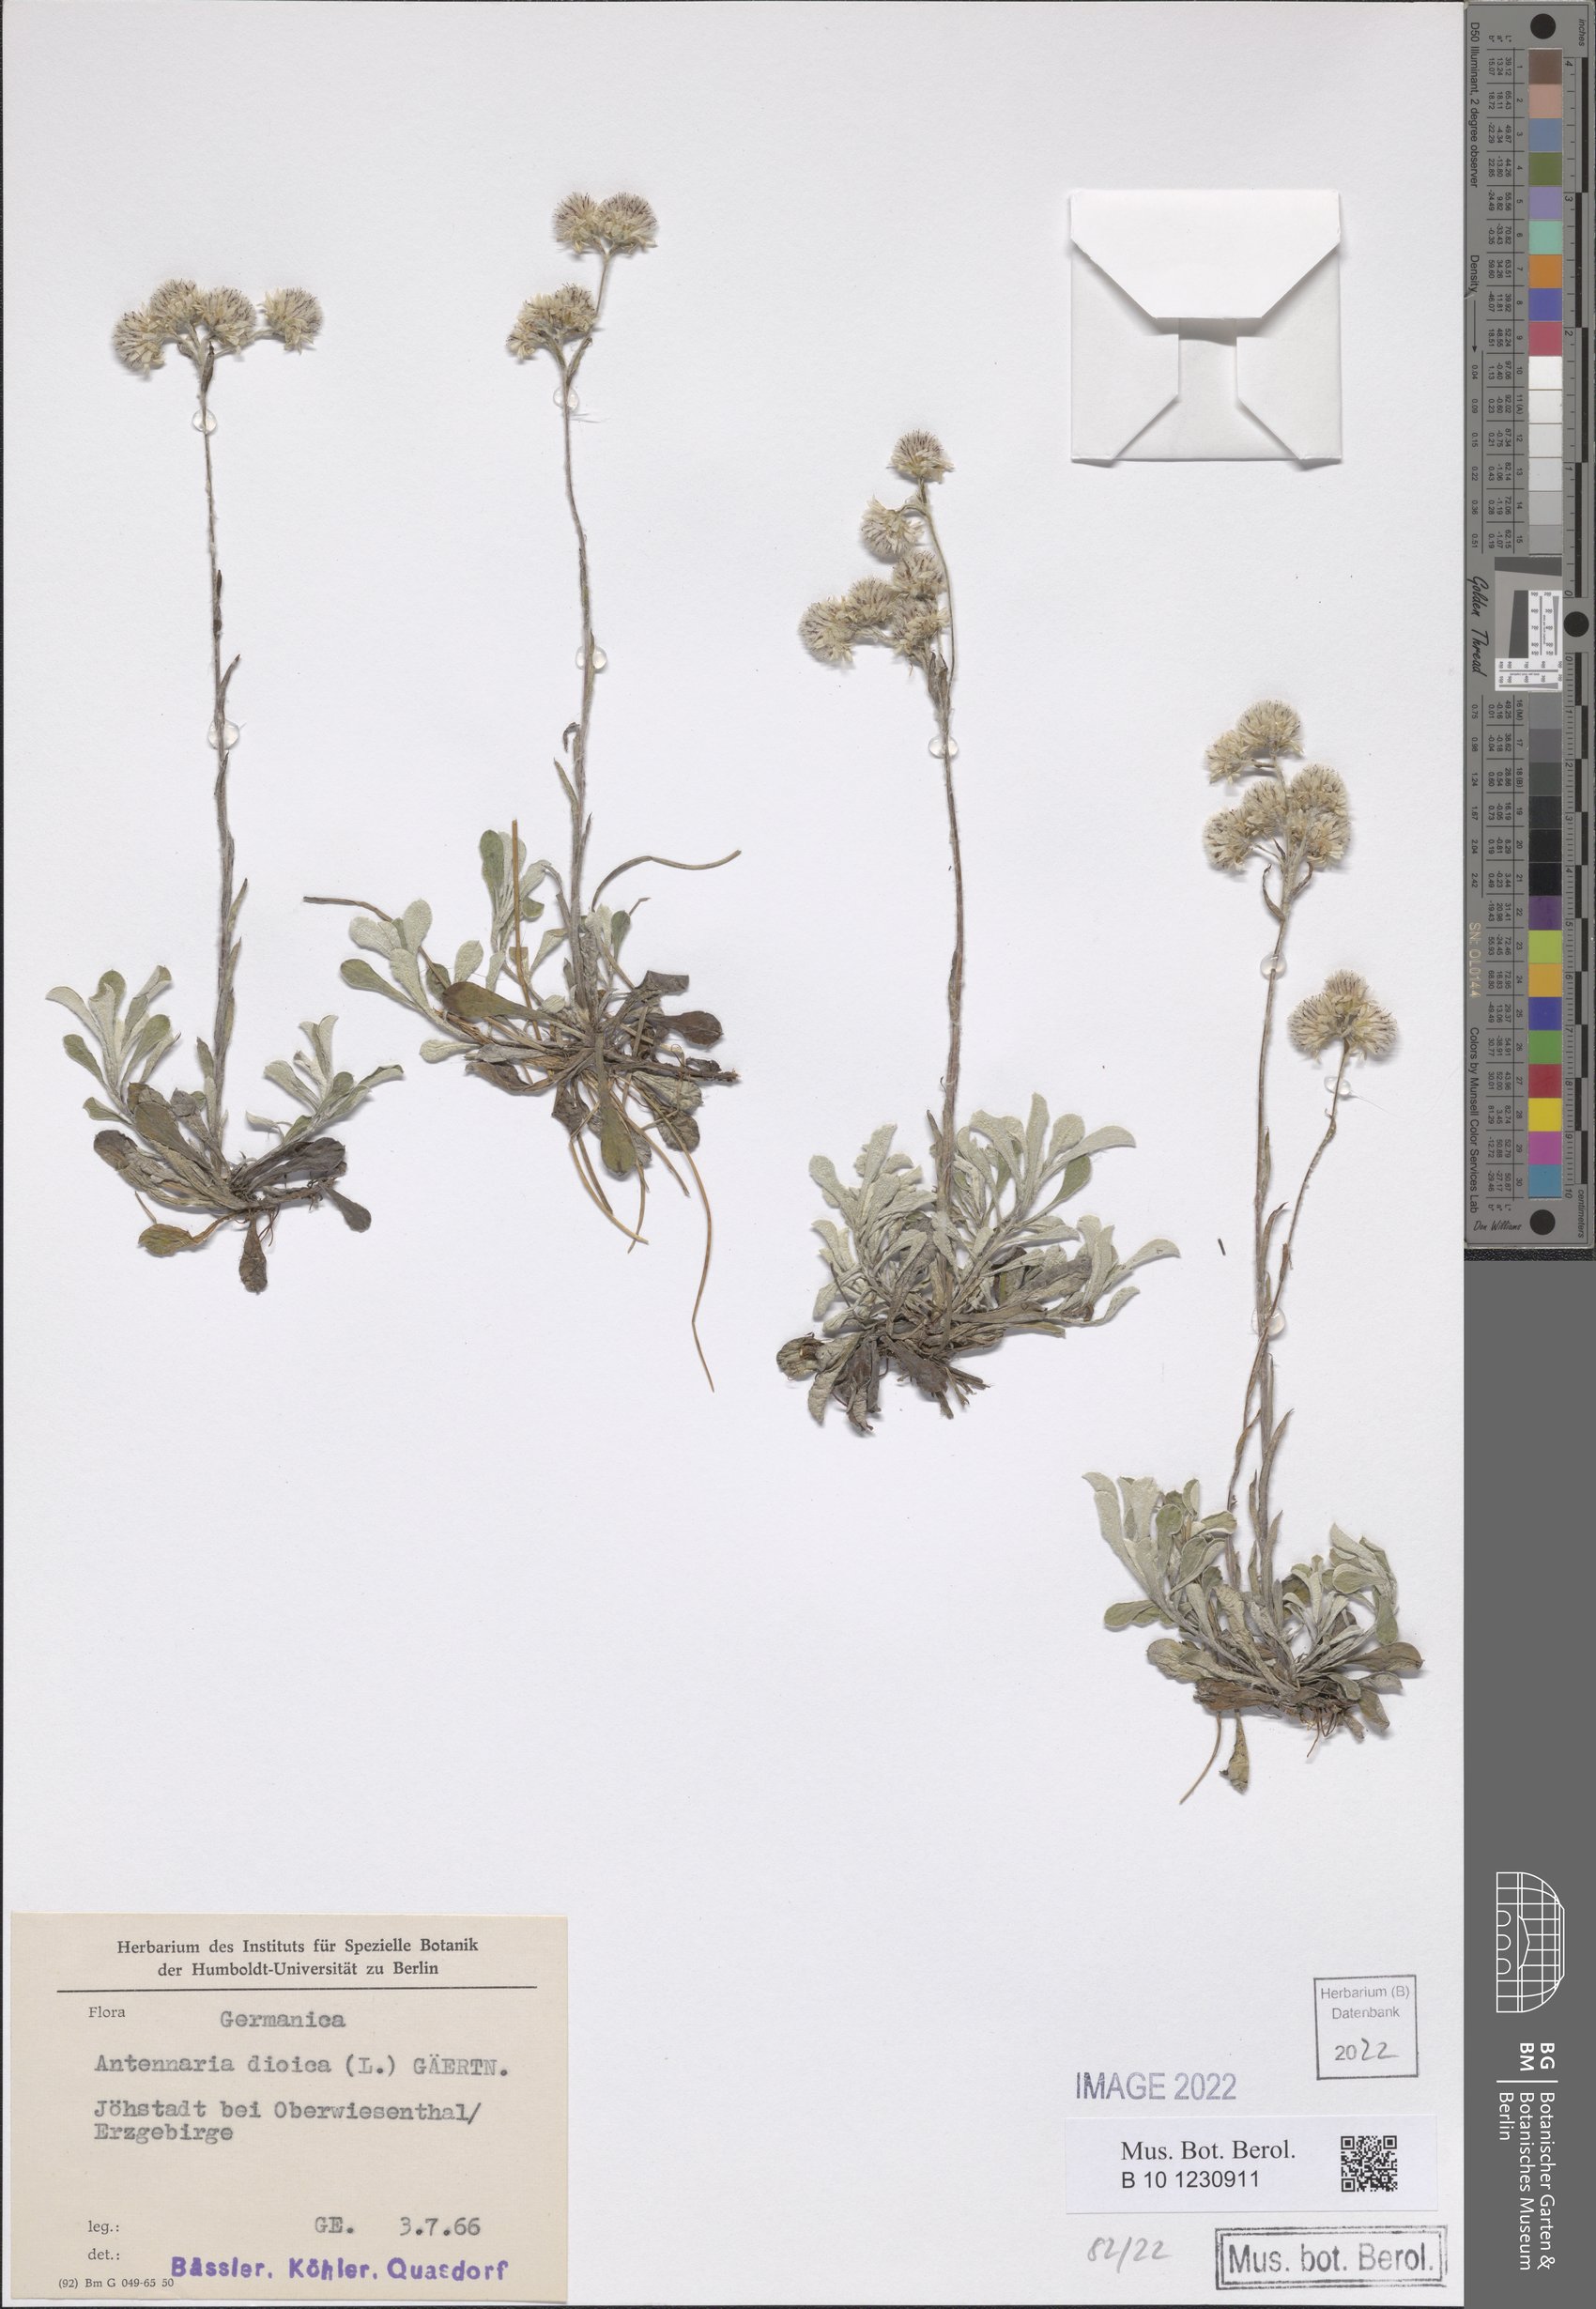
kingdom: Plantae
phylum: Tracheophyta
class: Magnoliopsida
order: Asterales
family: Asteraceae
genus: Antennaria
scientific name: Antennaria dioica
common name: Mountain everlasting
